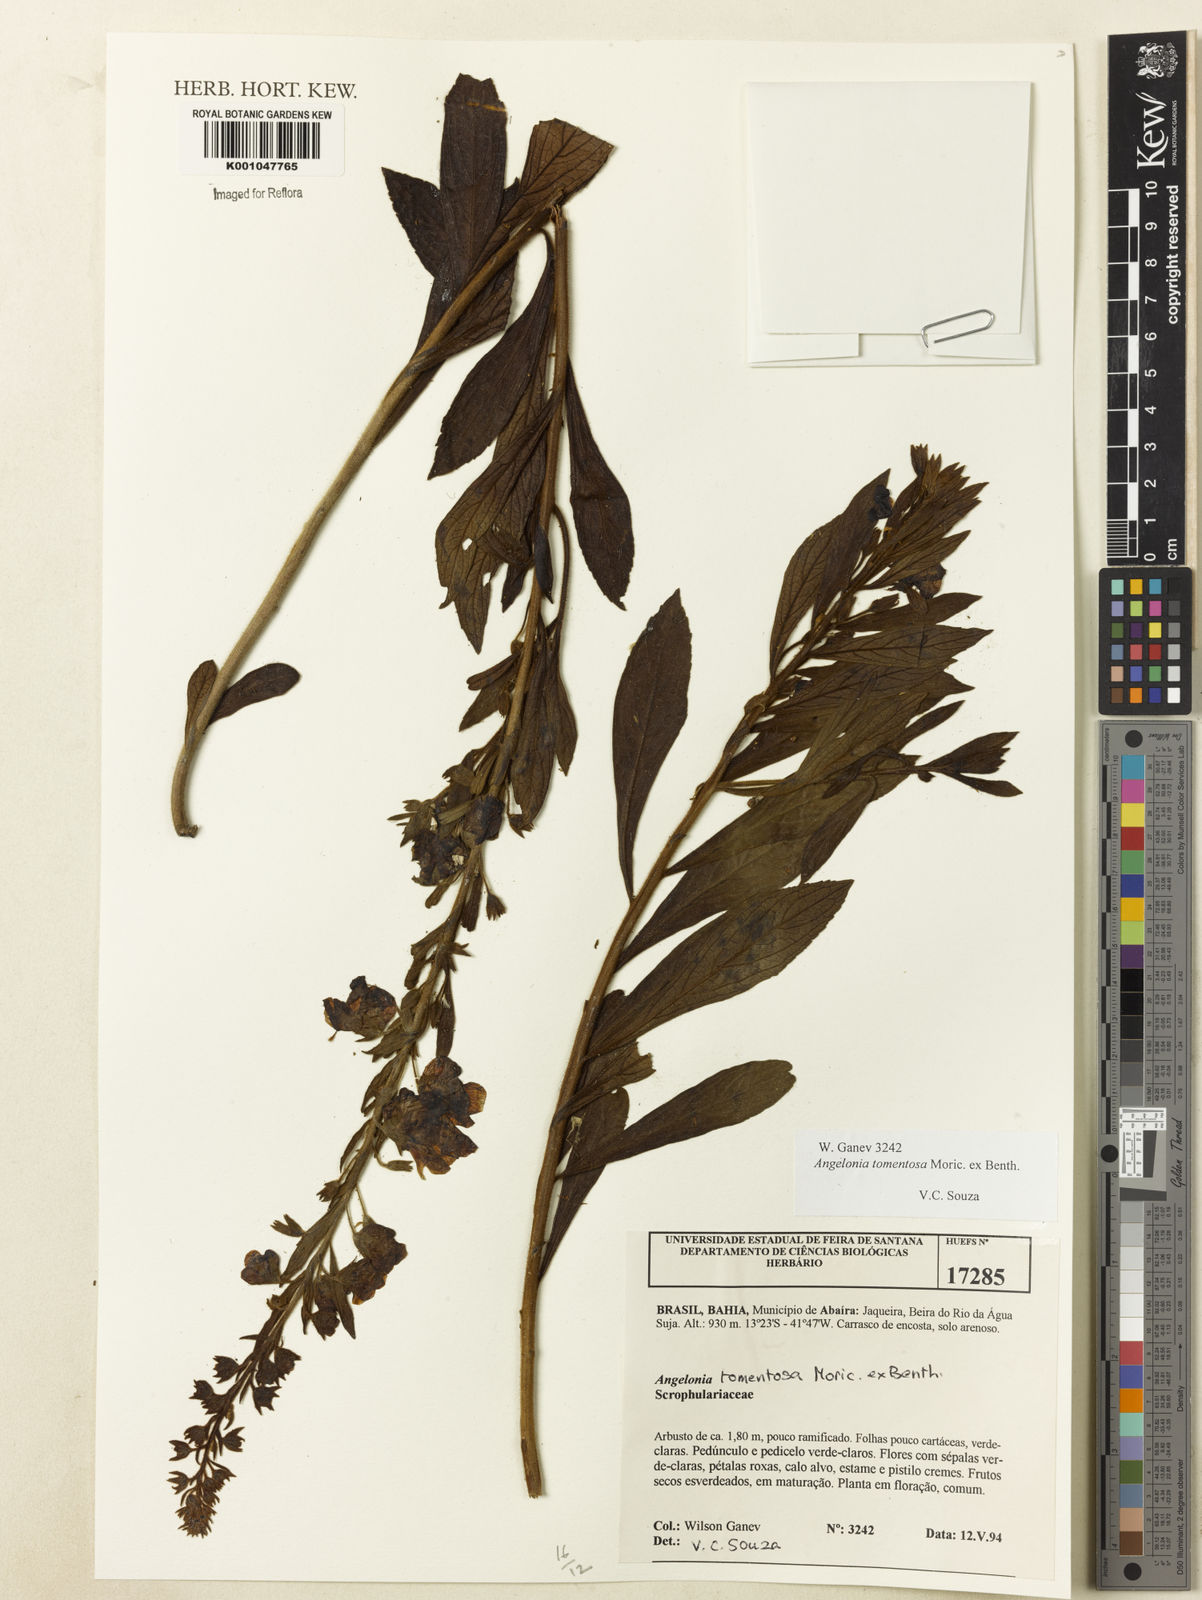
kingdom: Plantae
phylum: Tracheophyta
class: Magnoliopsida
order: Lamiales
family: Plantaginaceae
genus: Angelonia
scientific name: Angelonia tomentosa
